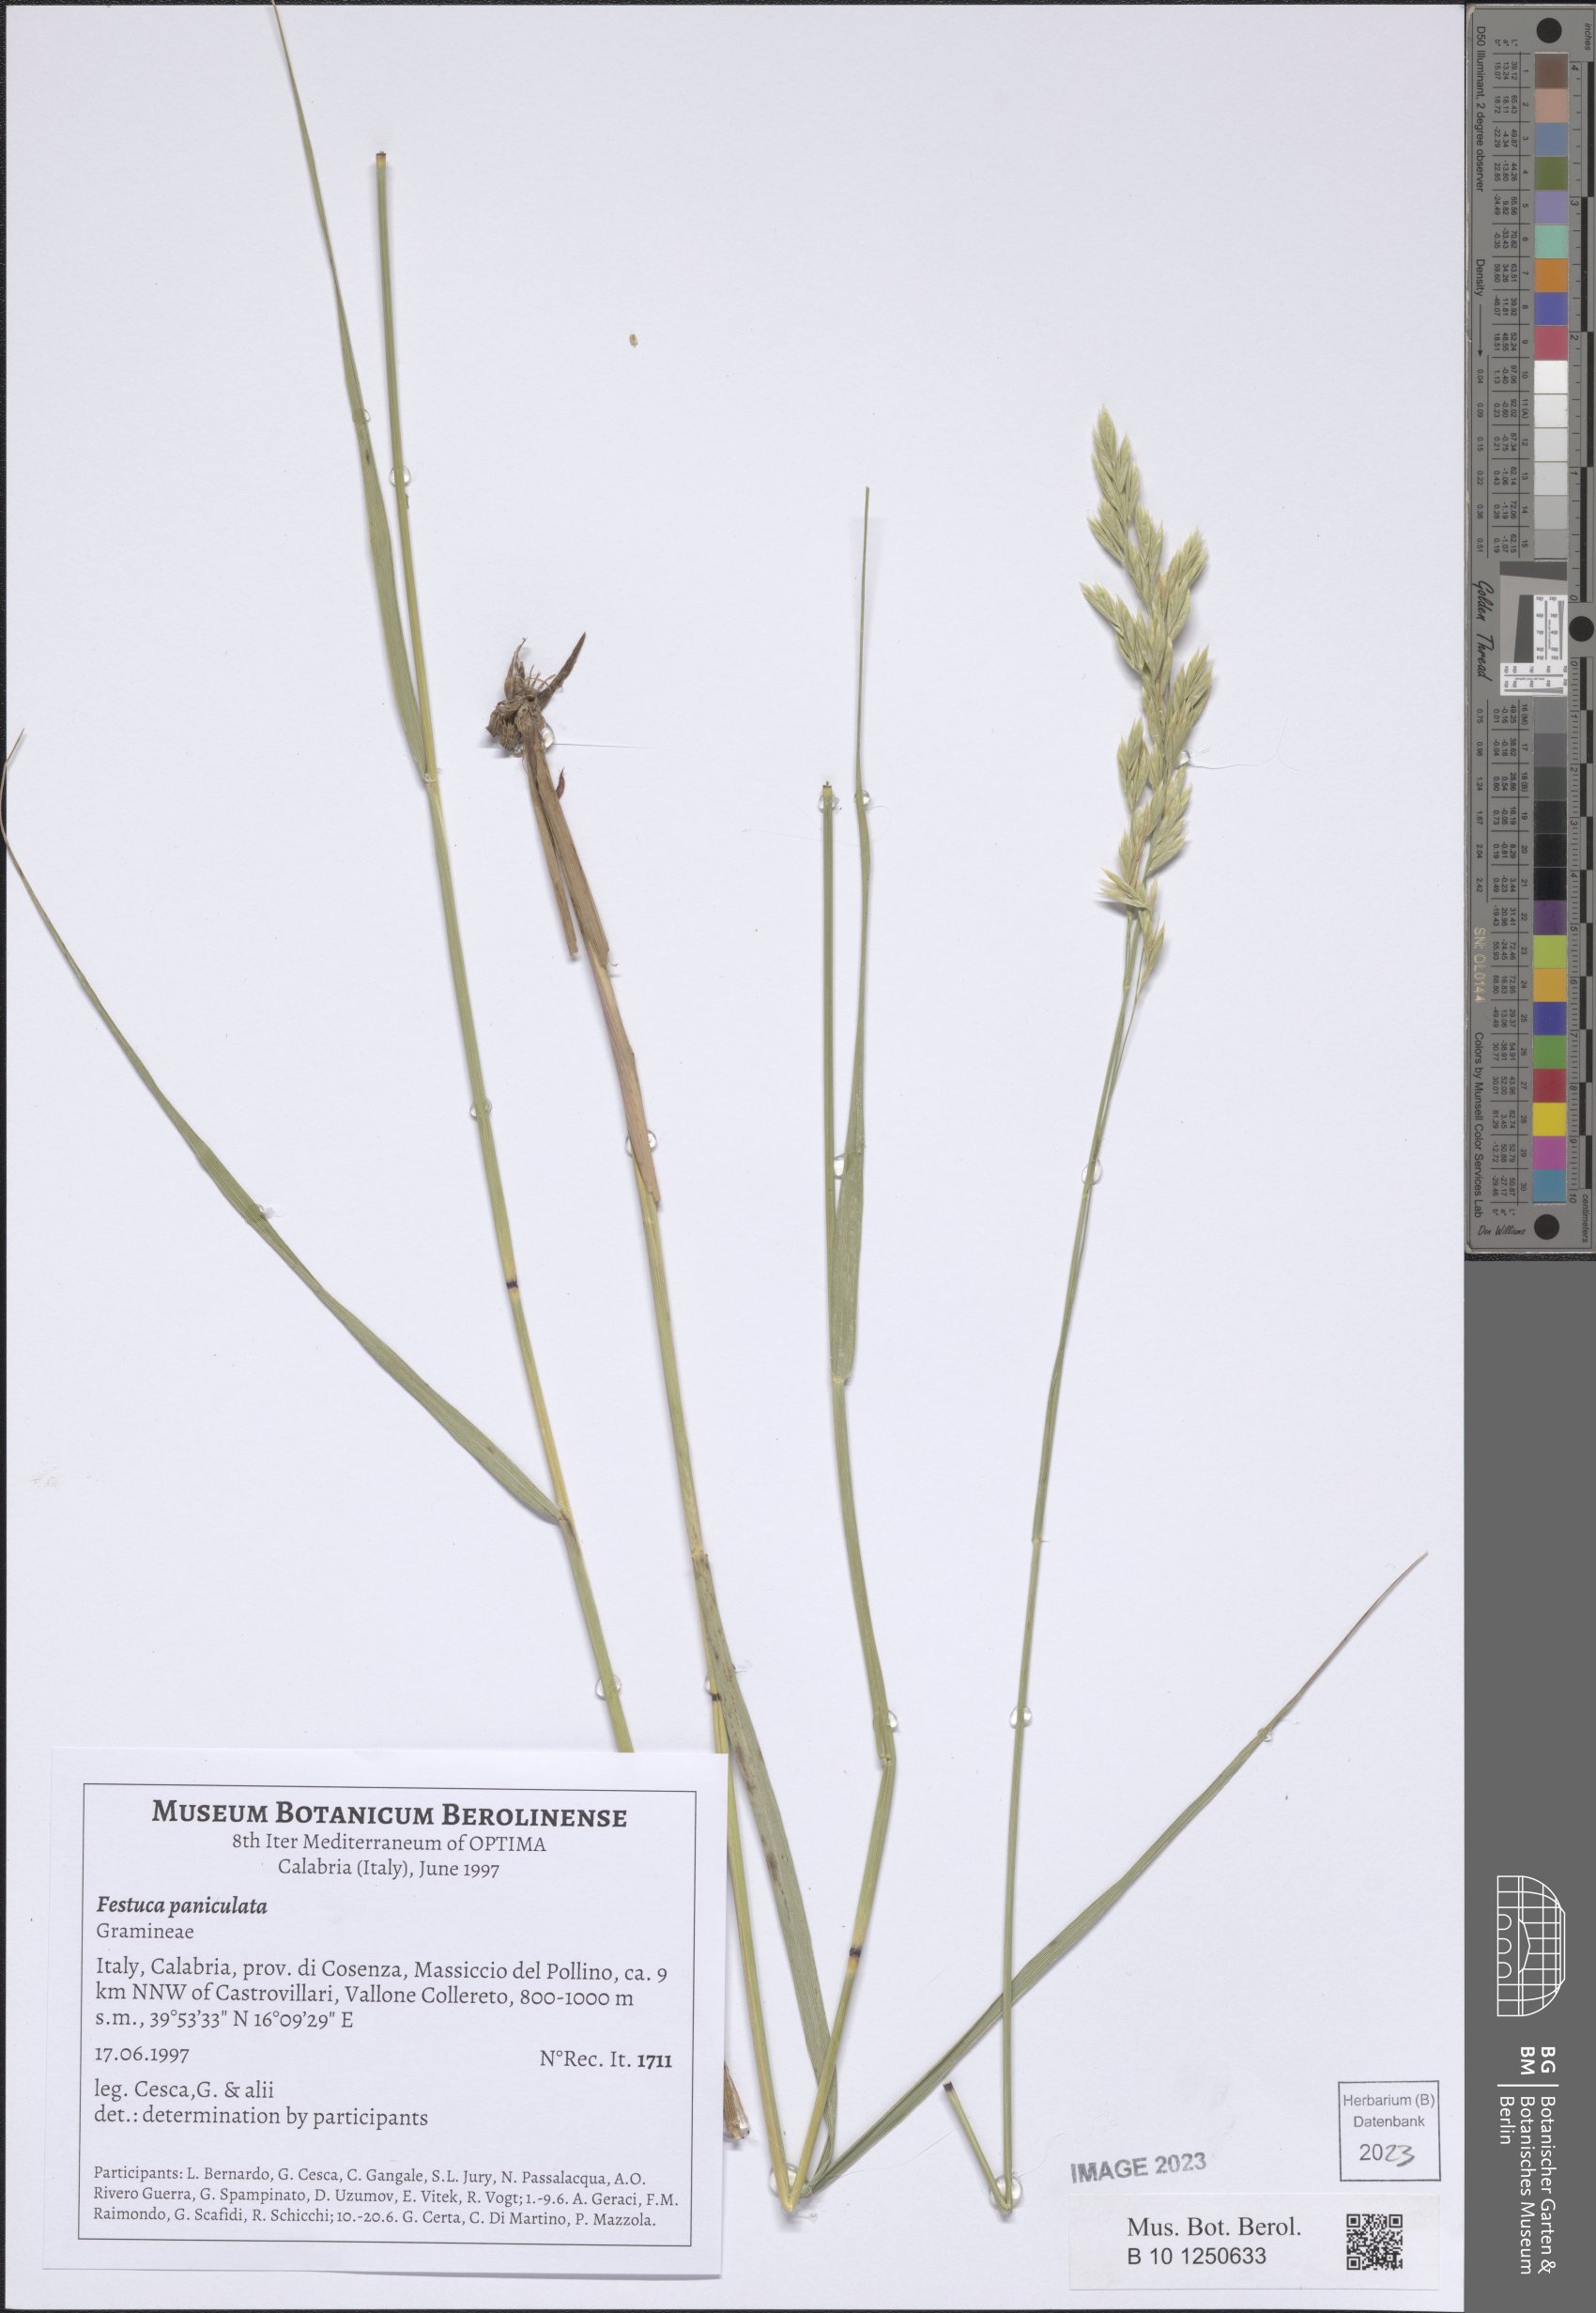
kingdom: Plantae
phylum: Tracheophyta
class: Liliopsida
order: Poales
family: Poaceae
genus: Patzkea
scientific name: Patzkea paniculata
